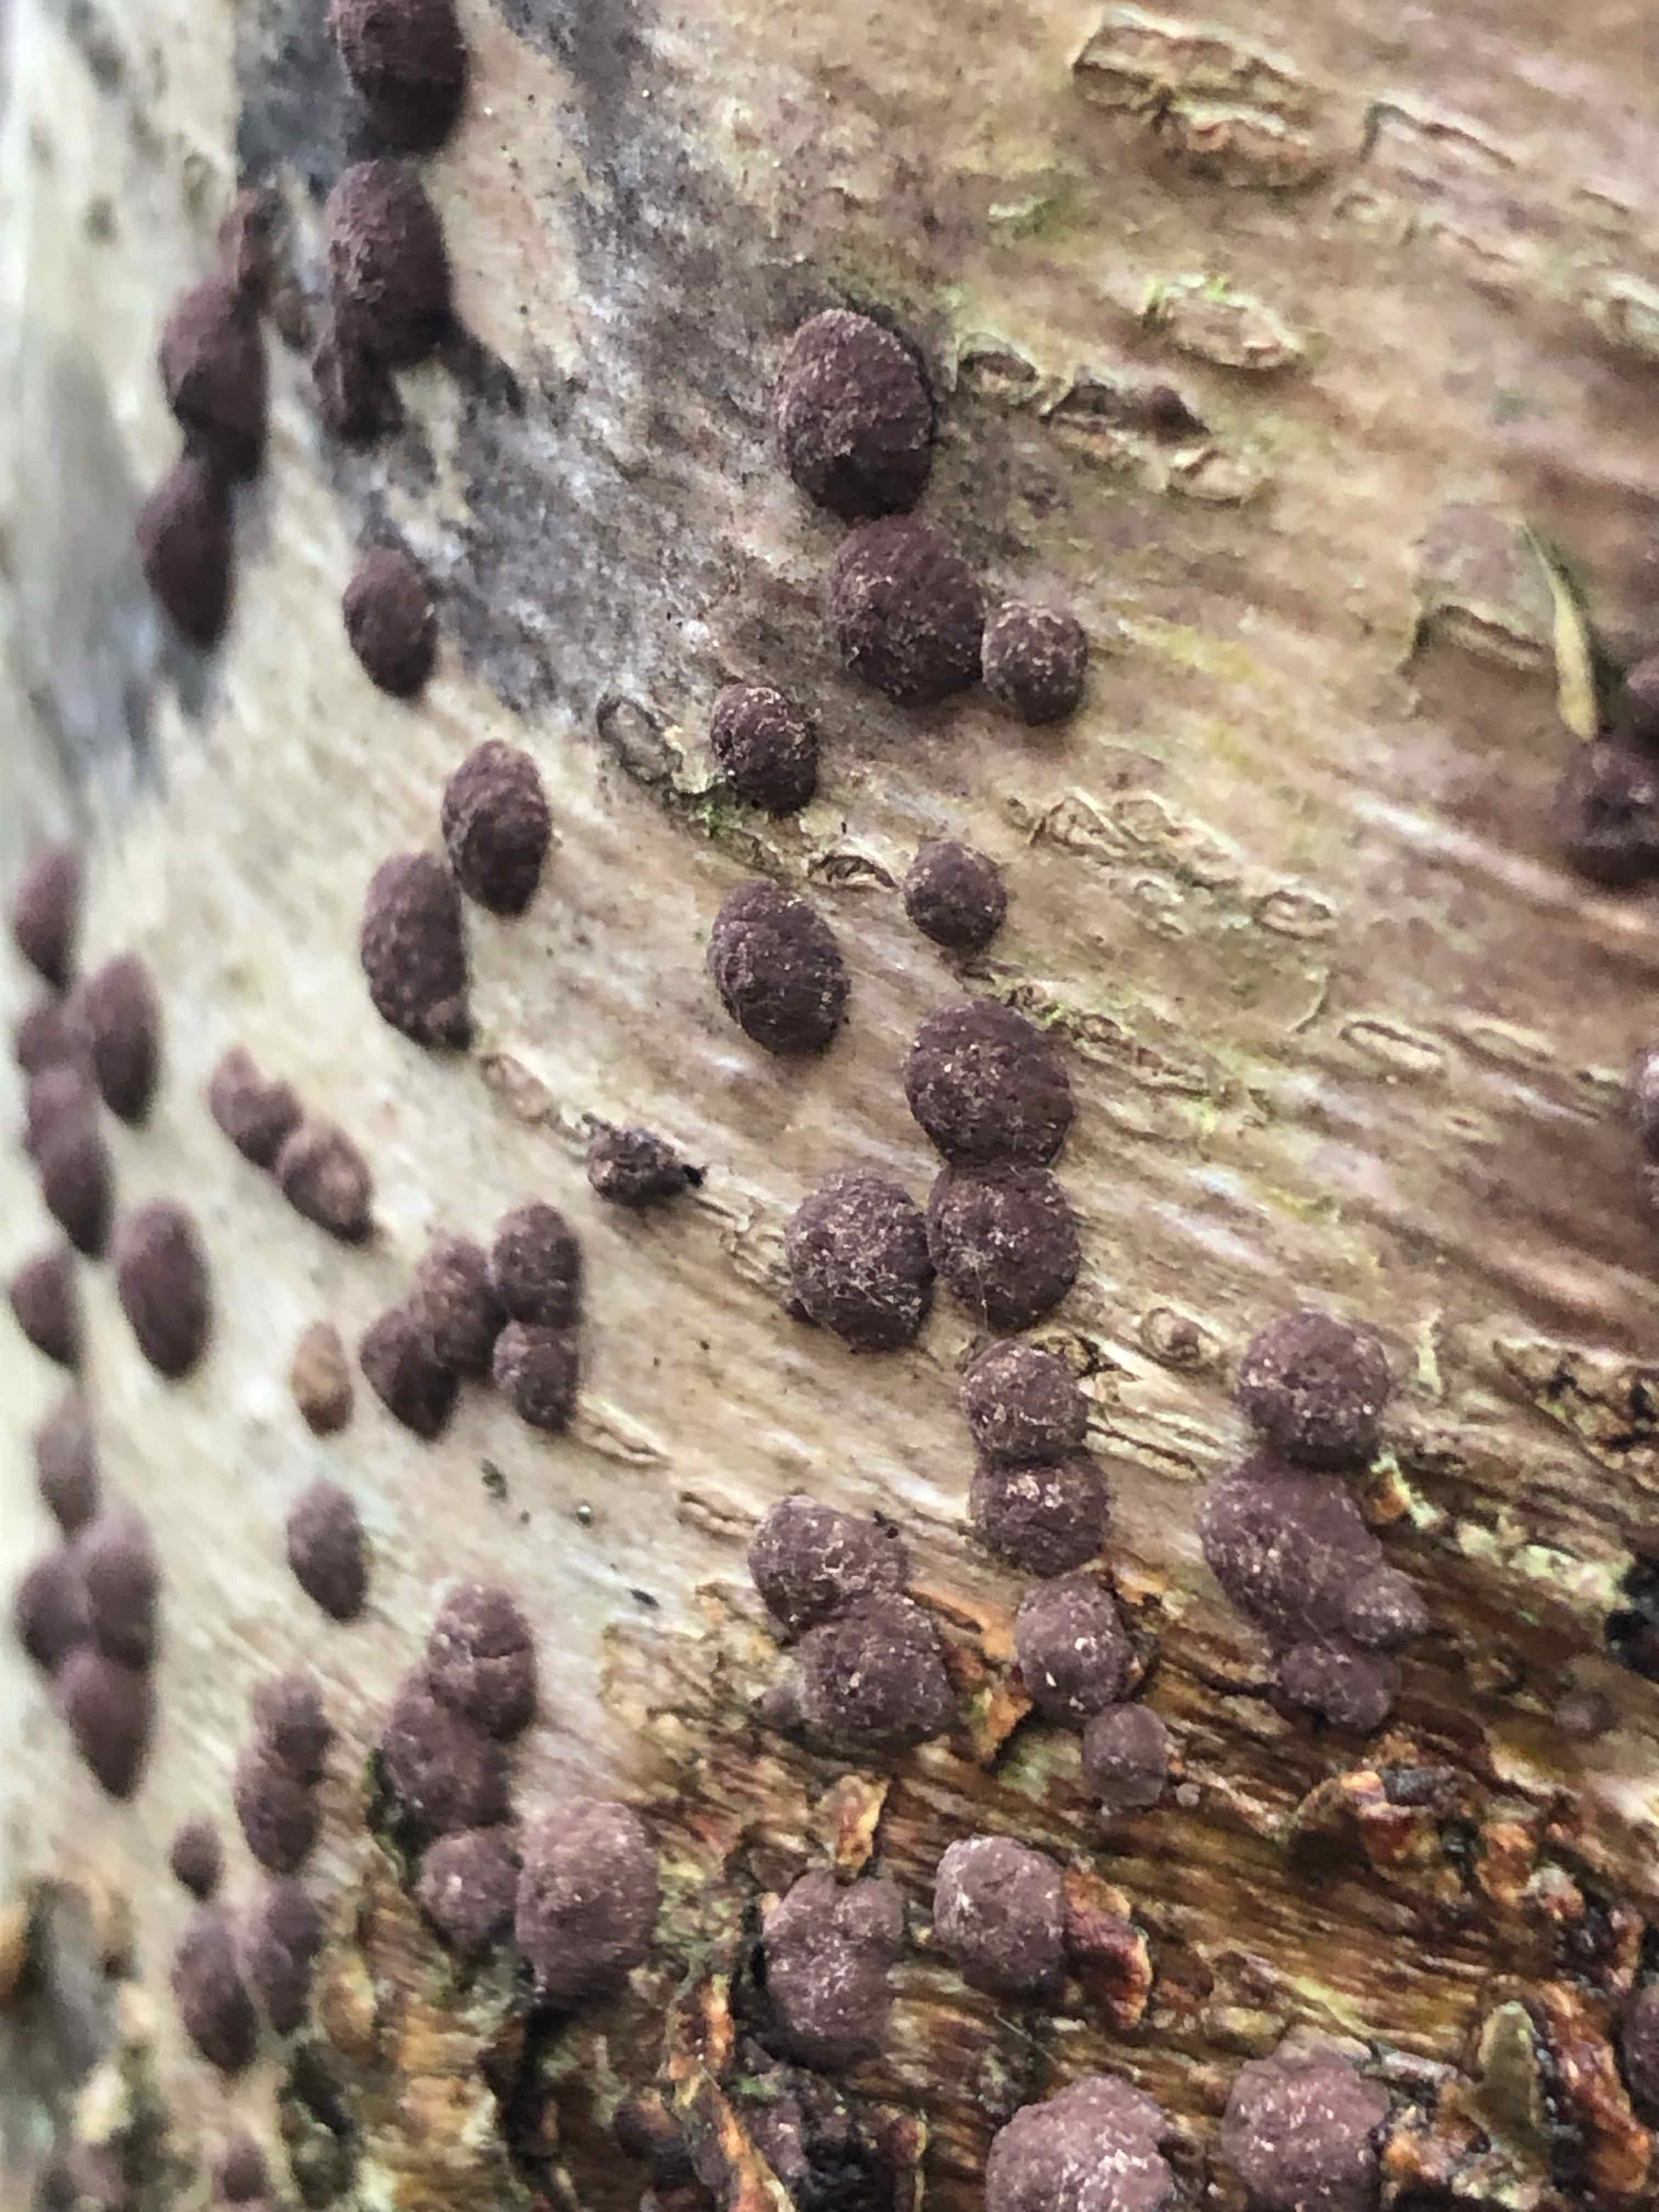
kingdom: Fungi
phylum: Ascomycota
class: Sordariomycetes
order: Xylariales
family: Hypoxylaceae
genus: Hypoxylon
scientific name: Hypoxylon fuscum
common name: kegleformet kulbær
